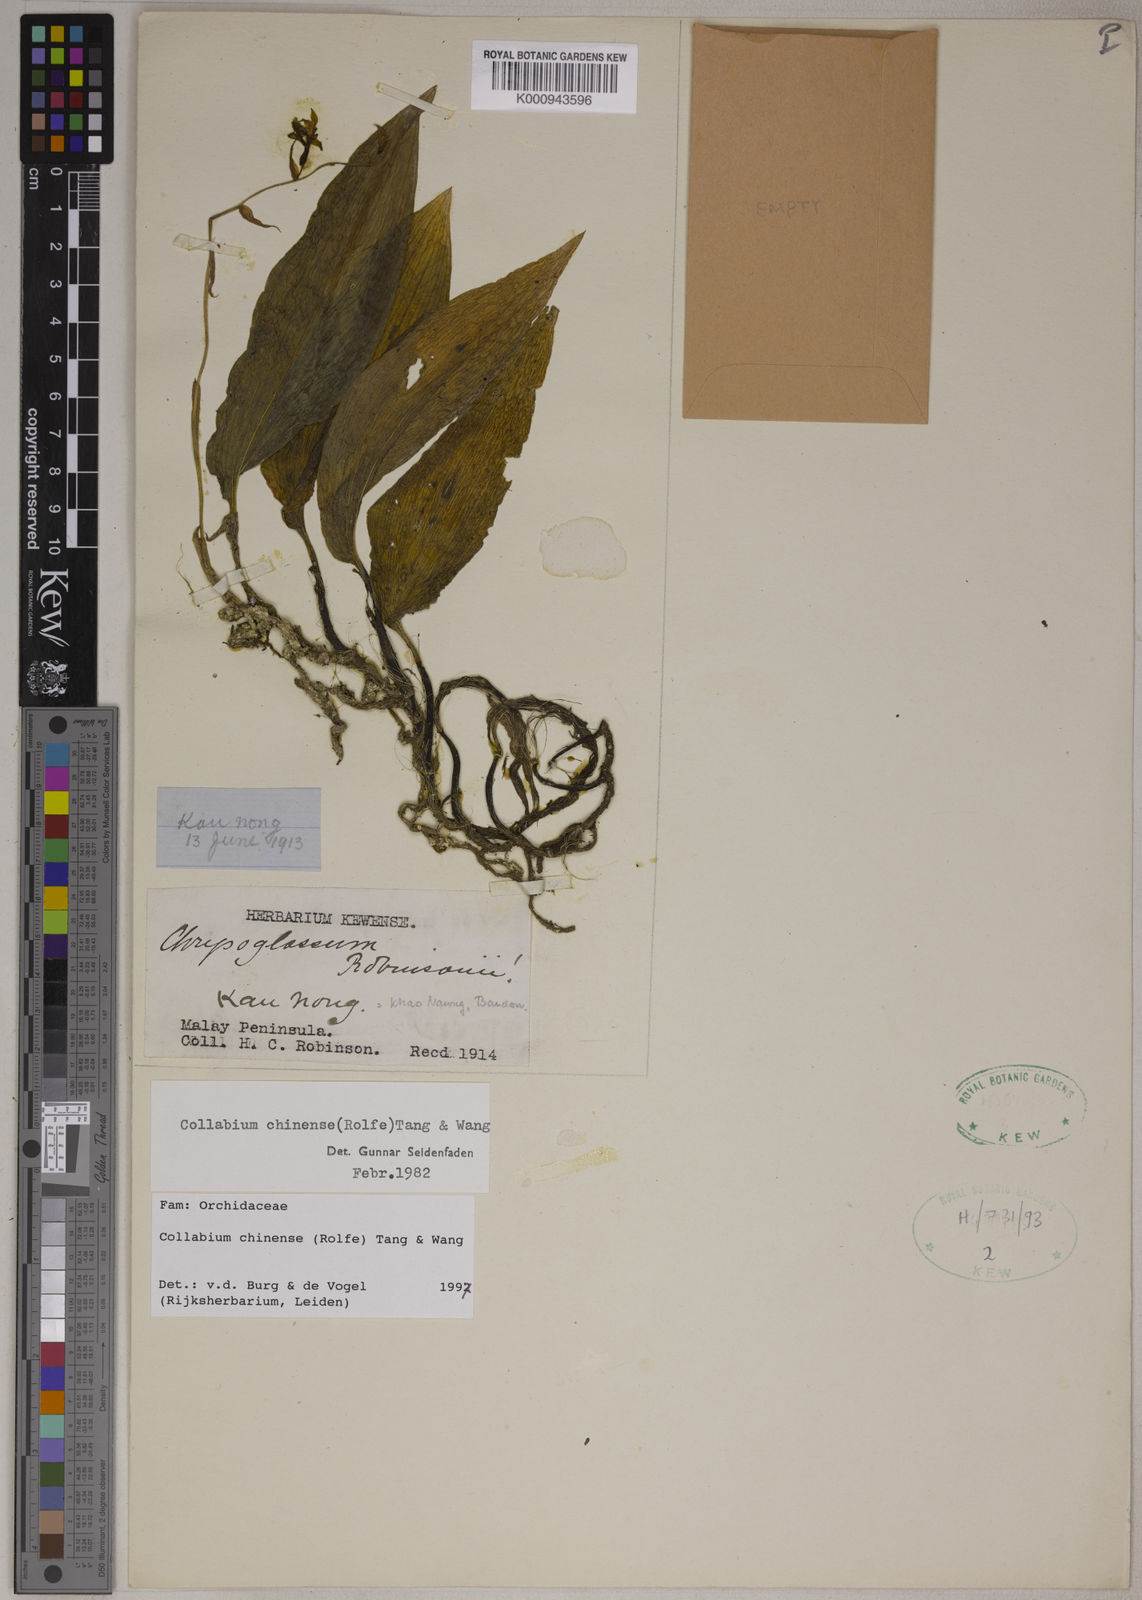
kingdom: Plantae
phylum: Tracheophyta
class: Liliopsida
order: Asparagales
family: Orchidaceae
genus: Collabium
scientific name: Collabium chinense
